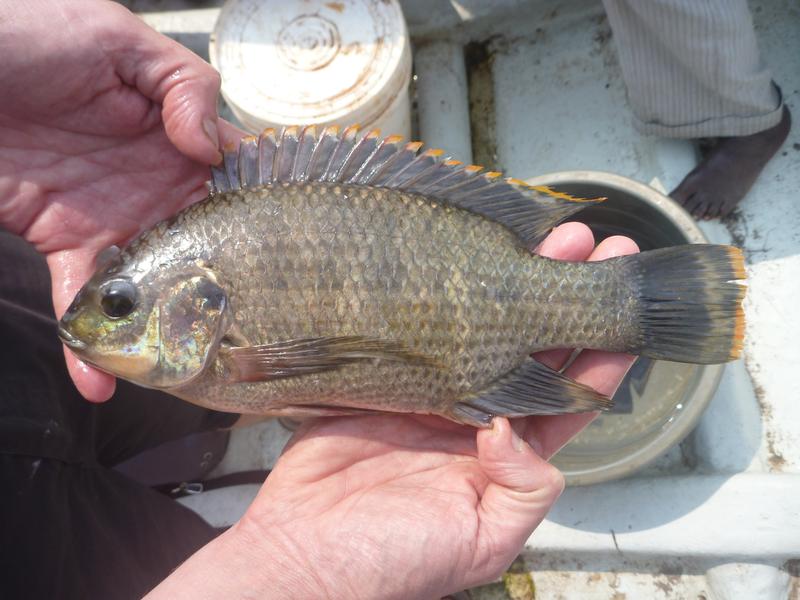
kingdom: Animalia
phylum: Chordata
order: Perciformes
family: Cichlidae
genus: Oreochromis
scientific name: Oreochromis variabilis
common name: Victoria tilapia
